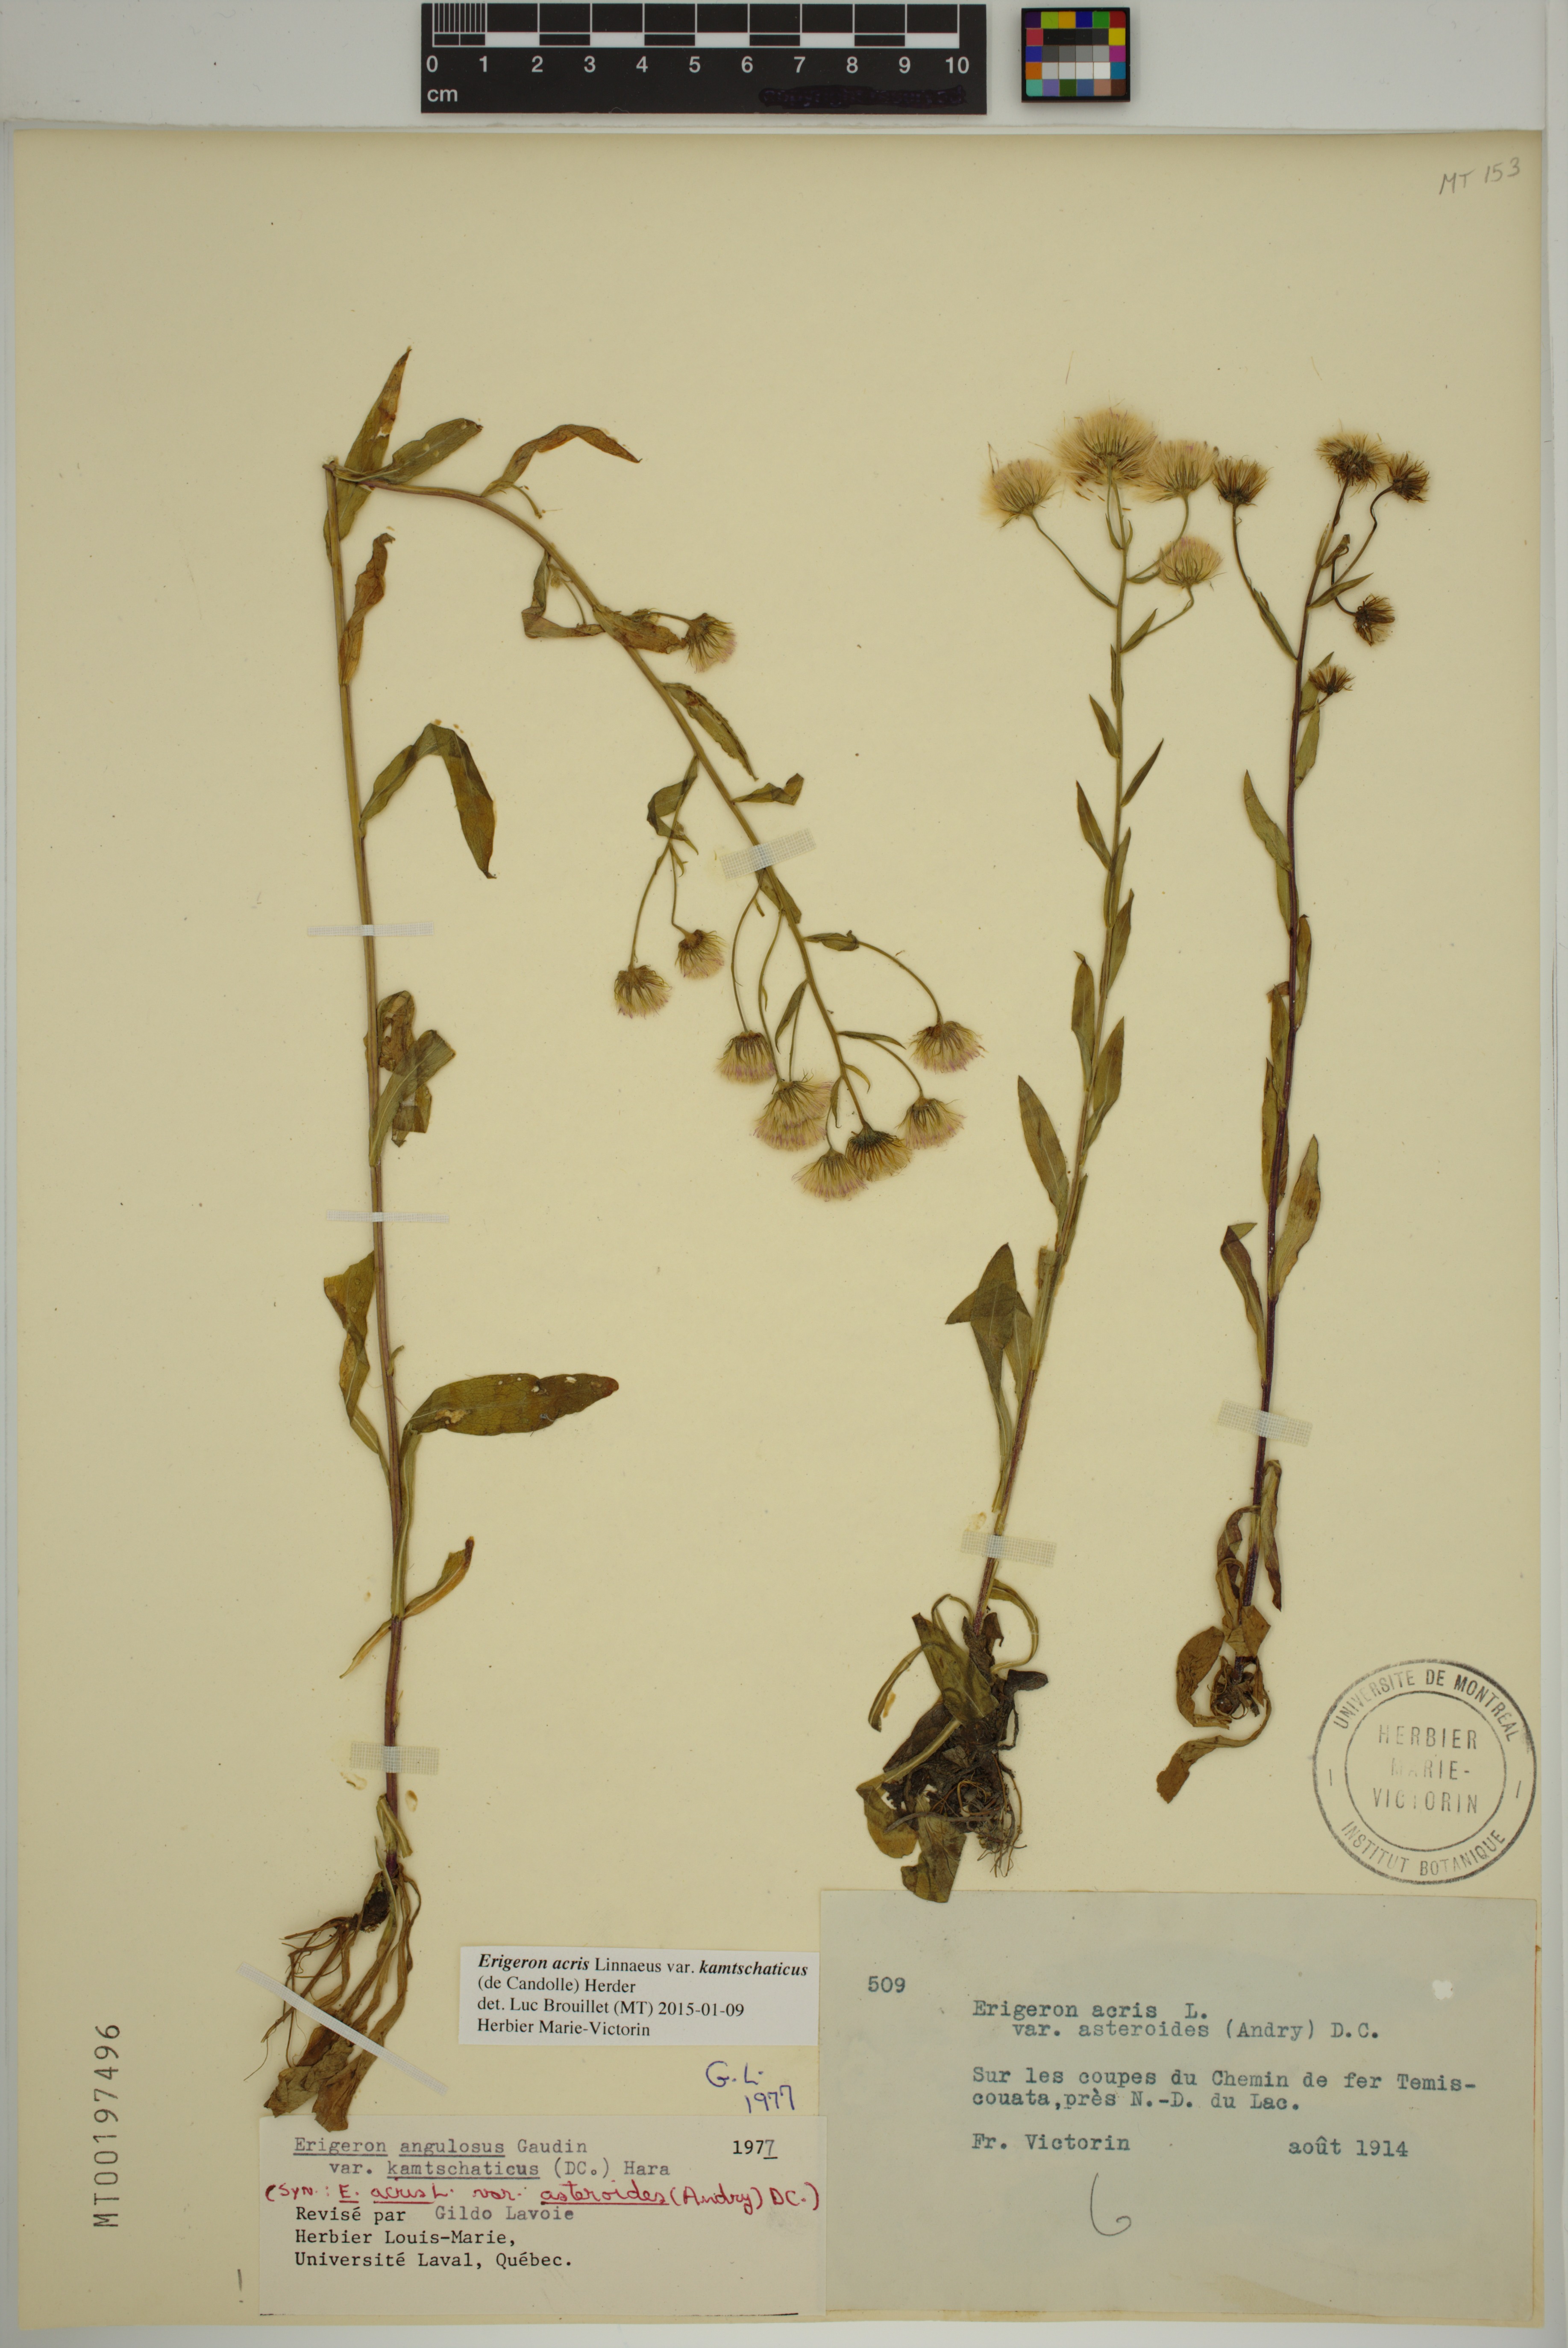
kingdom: Plantae
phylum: Tracheophyta
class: Magnoliopsida
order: Asterales
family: Asteraceae
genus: Erigeron
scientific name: Erigeron kamtschaticus
